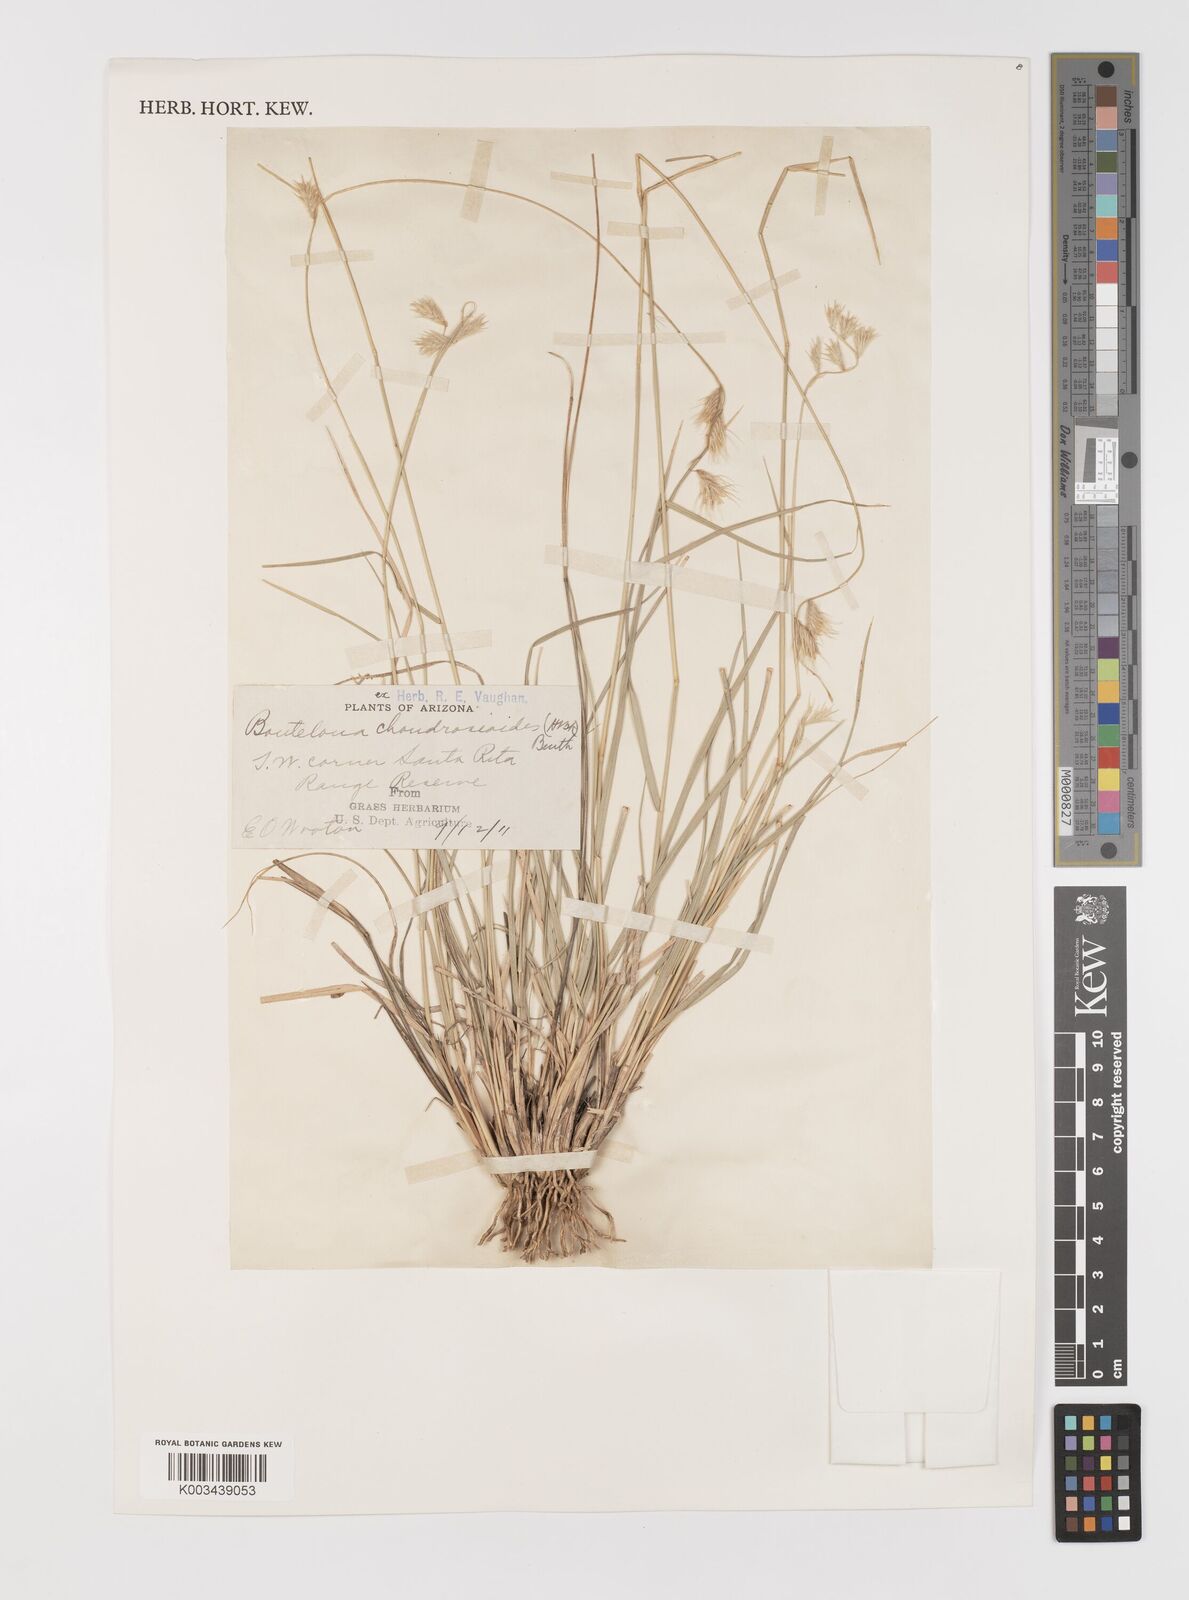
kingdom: Plantae
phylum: Tracheophyta
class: Liliopsida
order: Poales
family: Poaceae
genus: Bouteloua
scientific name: Bouteloua chondrosioides
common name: Sprucetop grama
